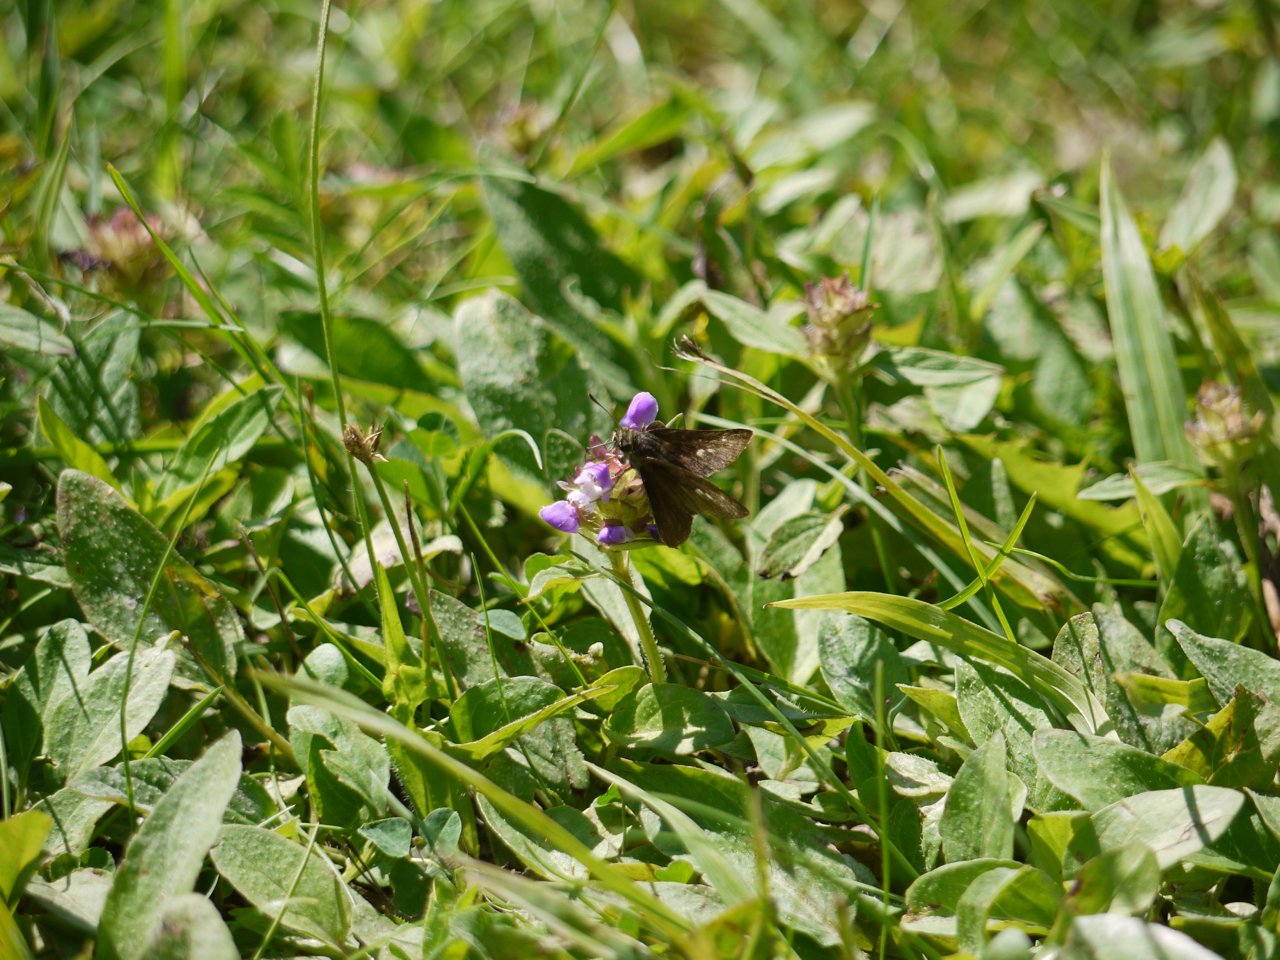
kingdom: Animalia
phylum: Arthropoda
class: Insecta
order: Lepidoptera
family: Hesperiidae
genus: Euphyes
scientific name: Euphyes
